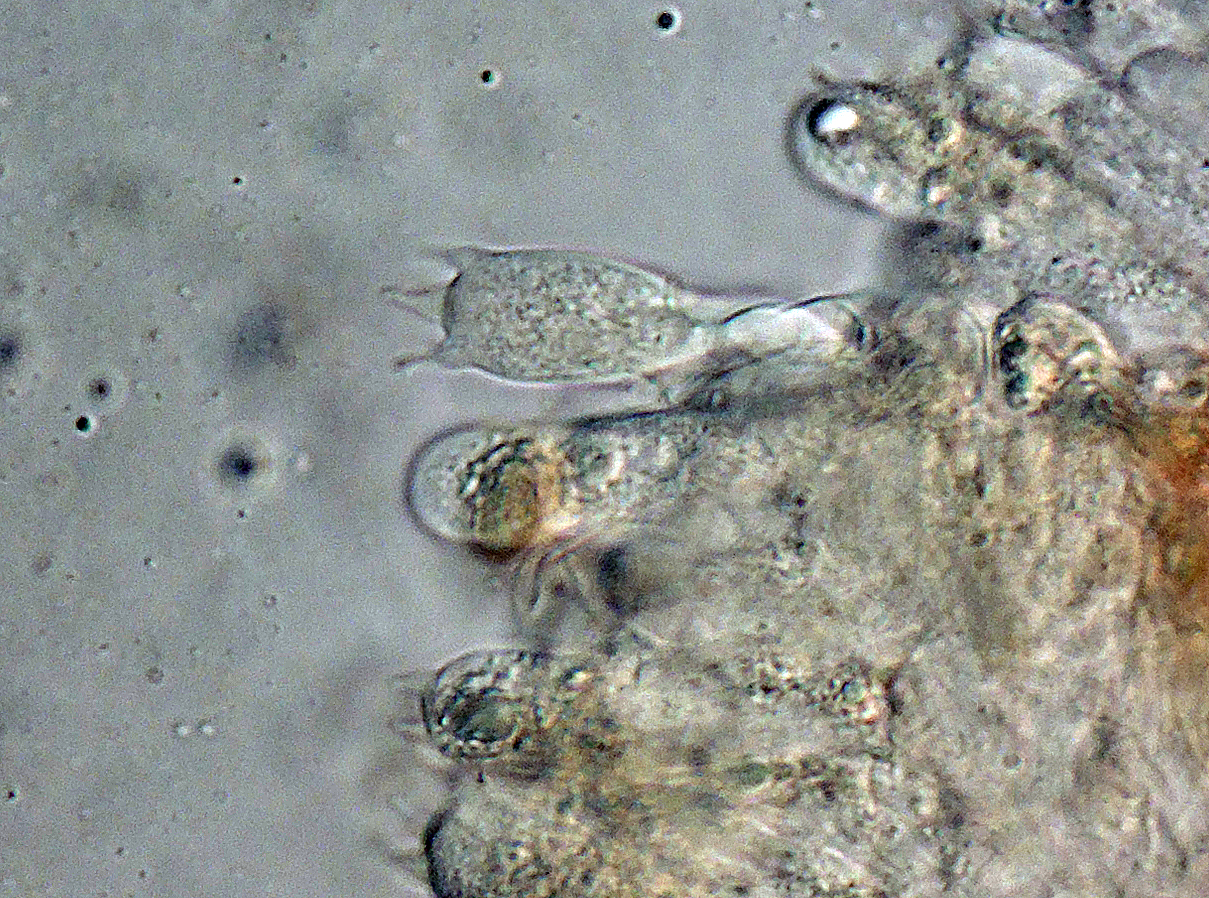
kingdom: Fungi
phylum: Basidiomycota
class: Agaricomycetes
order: Agaricales
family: Hymenogastraceae
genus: Galerina
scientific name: Galerina clavata
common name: kær-hjelmhat
